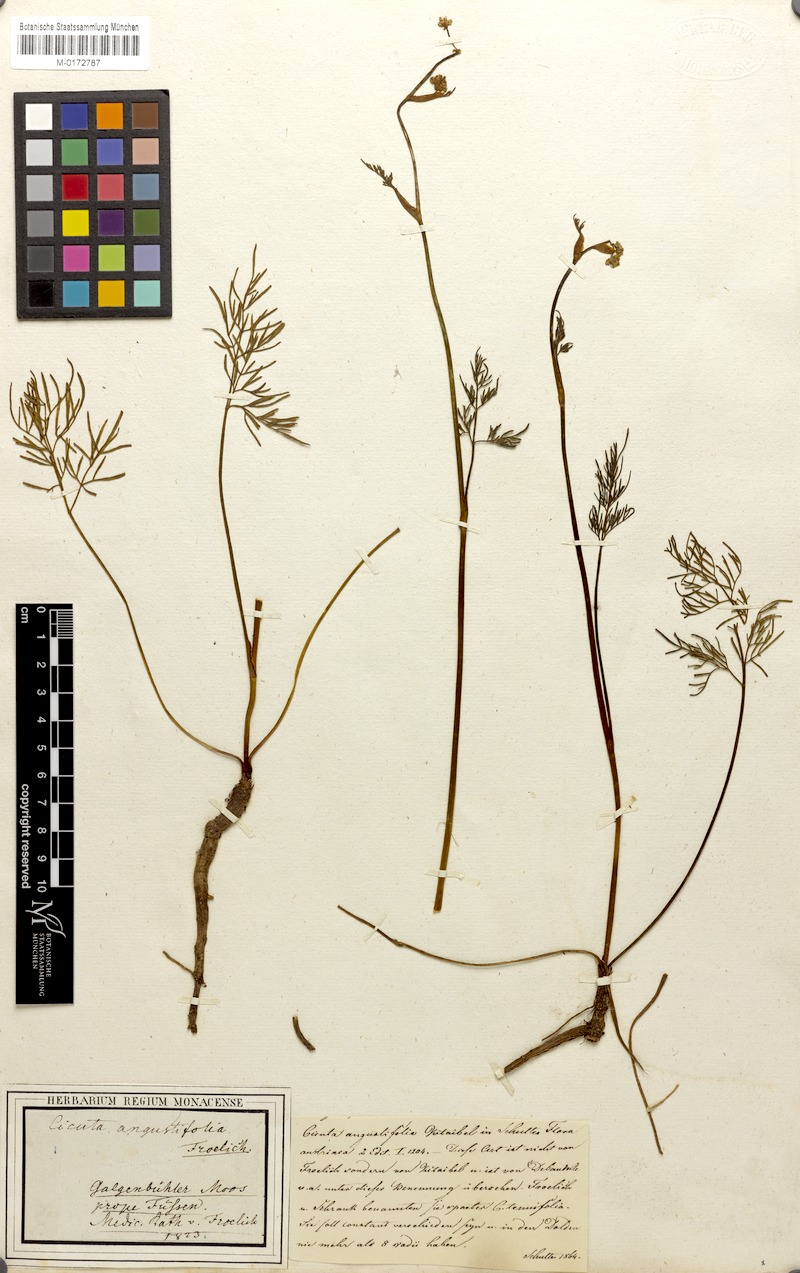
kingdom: Plantae
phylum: Tracheophyta
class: Magnoliopsida
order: Apiales
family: Apiaceae
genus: Cicuta
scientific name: Cicuta virosa
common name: Cowbane
